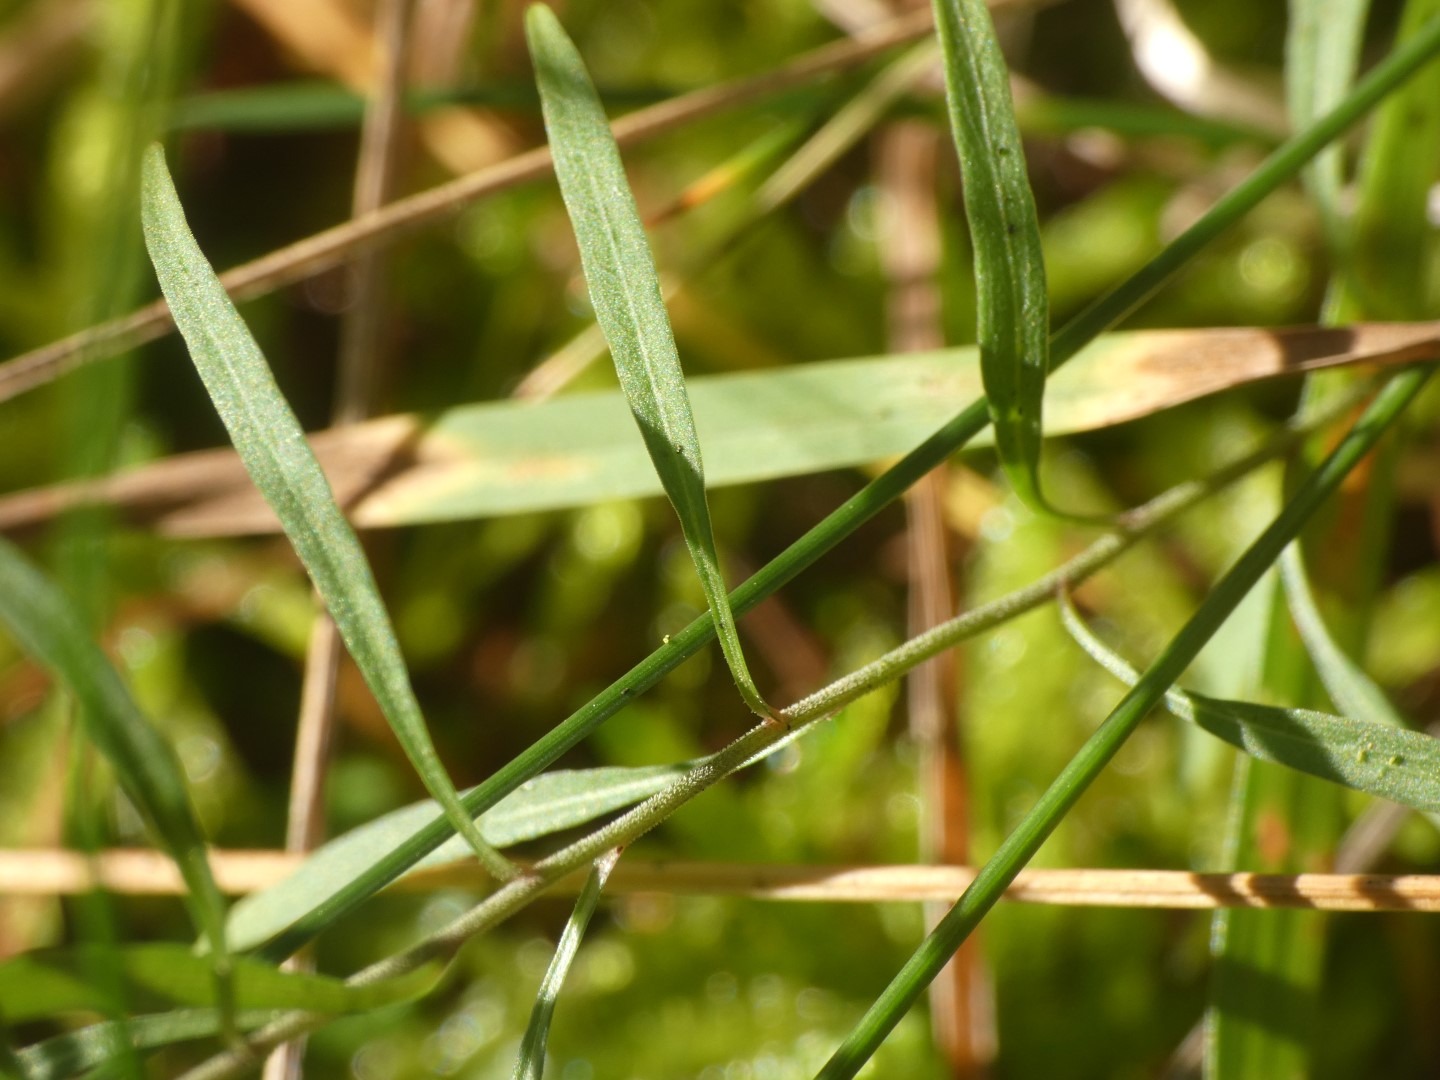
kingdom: Plantae
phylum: Tracheophyta
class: Magnoliopsida
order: Asterales
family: Campanulaceae
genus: Campanula
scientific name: Campanula rotundifolia
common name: Liden klokke
